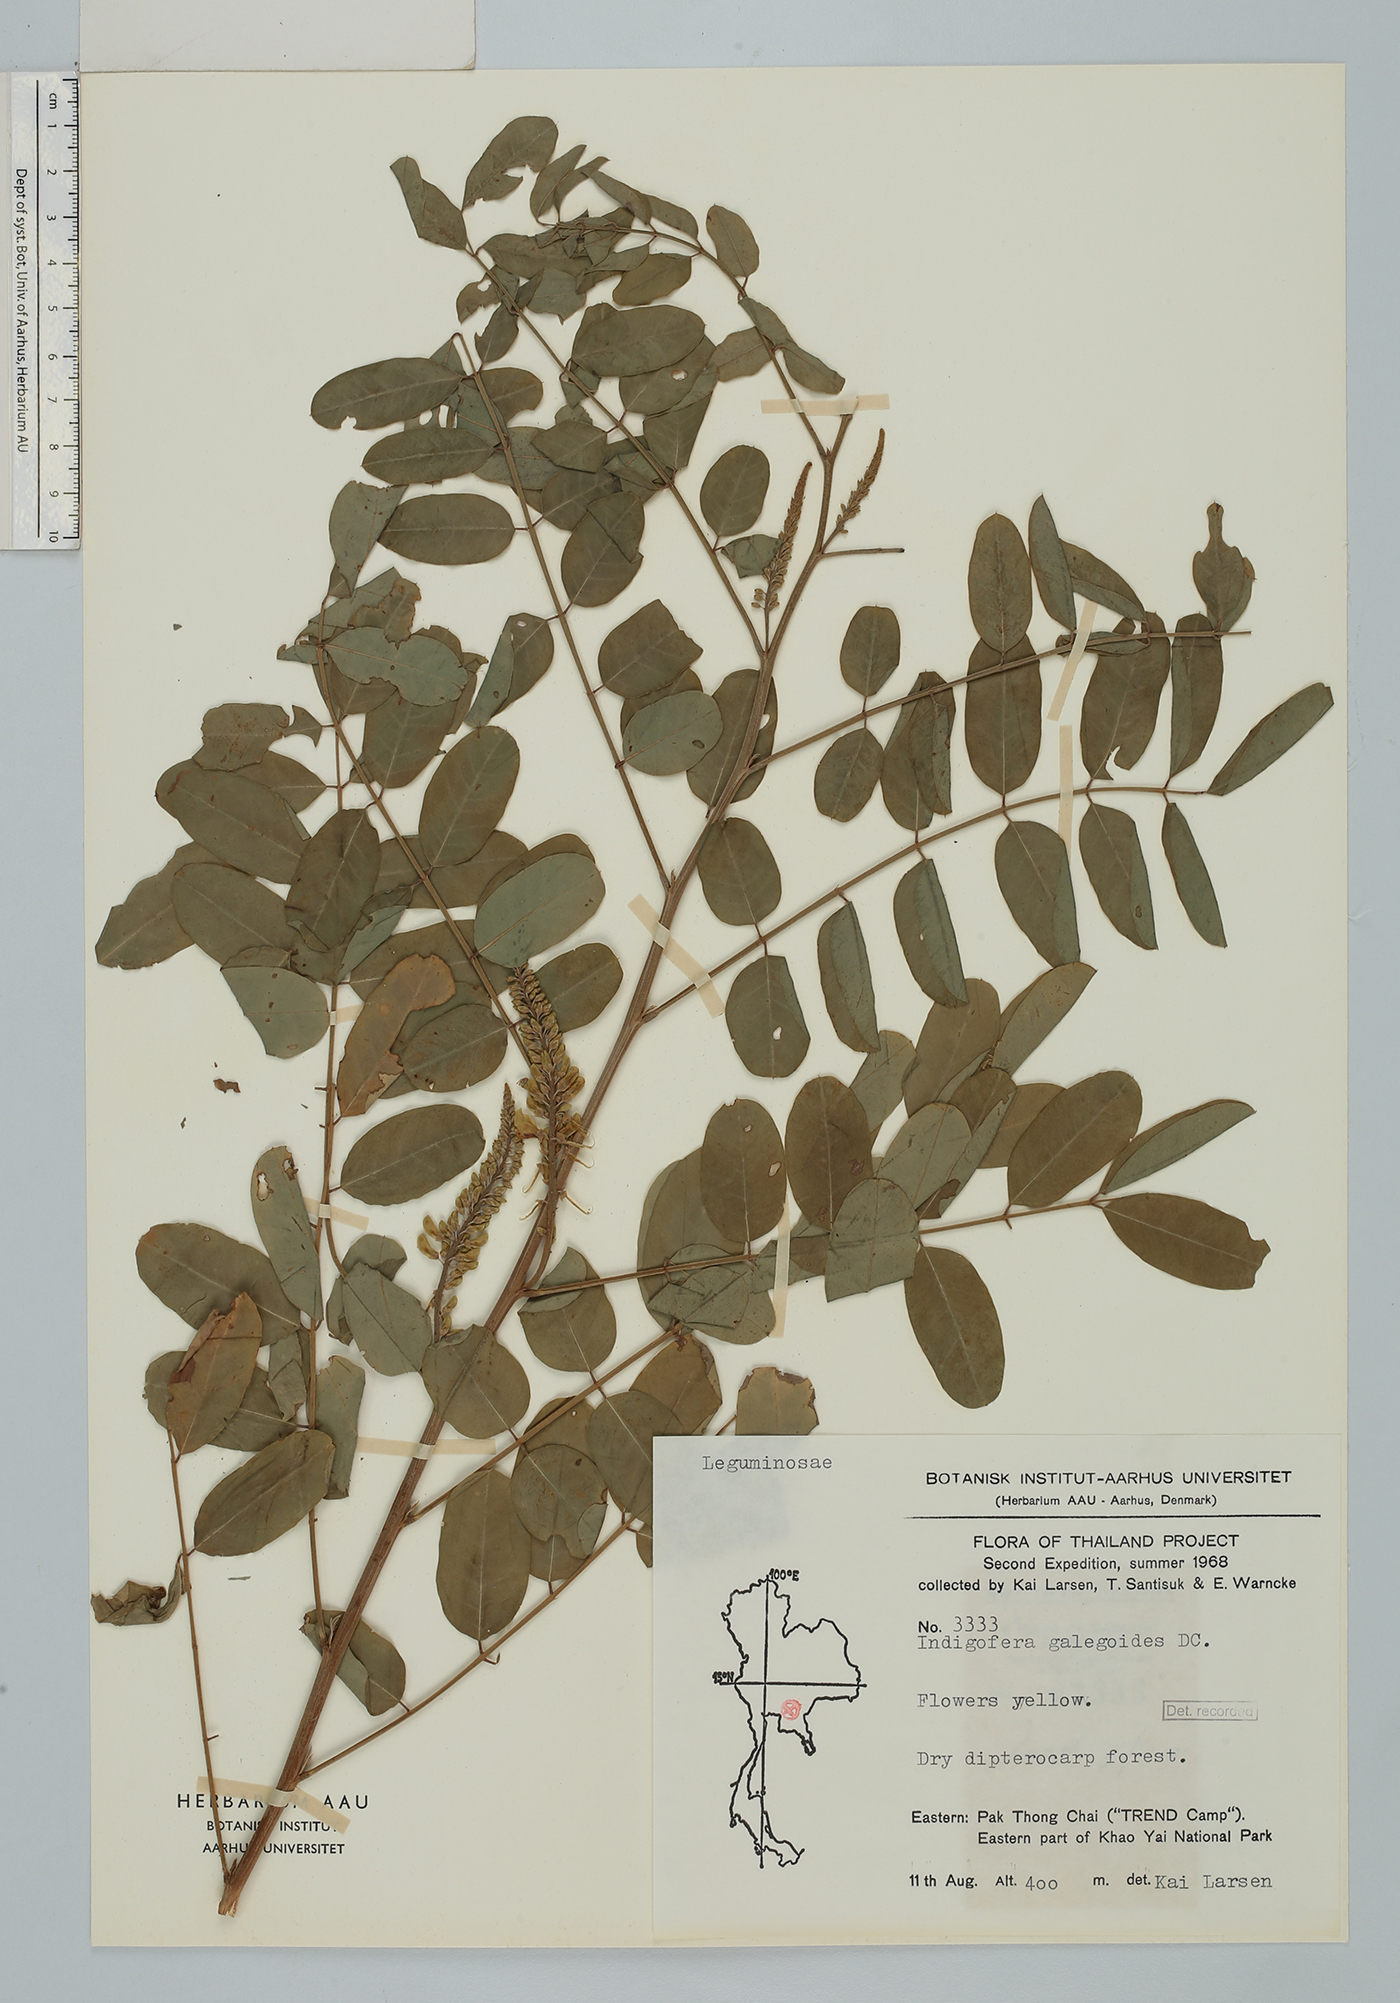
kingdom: Plantae
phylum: Tracheophyta
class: Magnoliopsida
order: Fabales
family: Fabaceae
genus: Indigofera
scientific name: Indigofera galegoides
